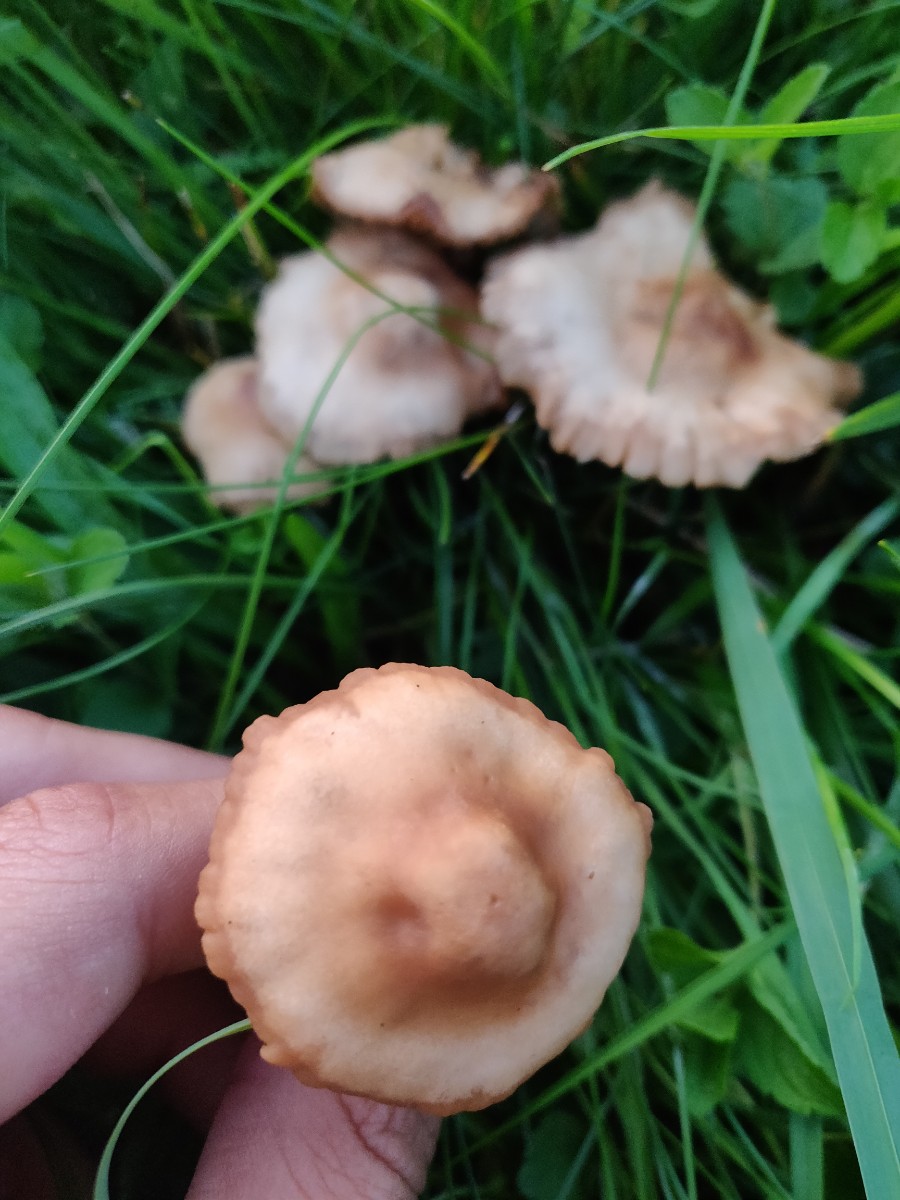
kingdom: Fungi
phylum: Basidiomycota
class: Agaricomycetes
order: Agaricales
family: Marasmiaceae
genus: Marasmius
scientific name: Marasmius oreades
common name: elledans-bruskhat
